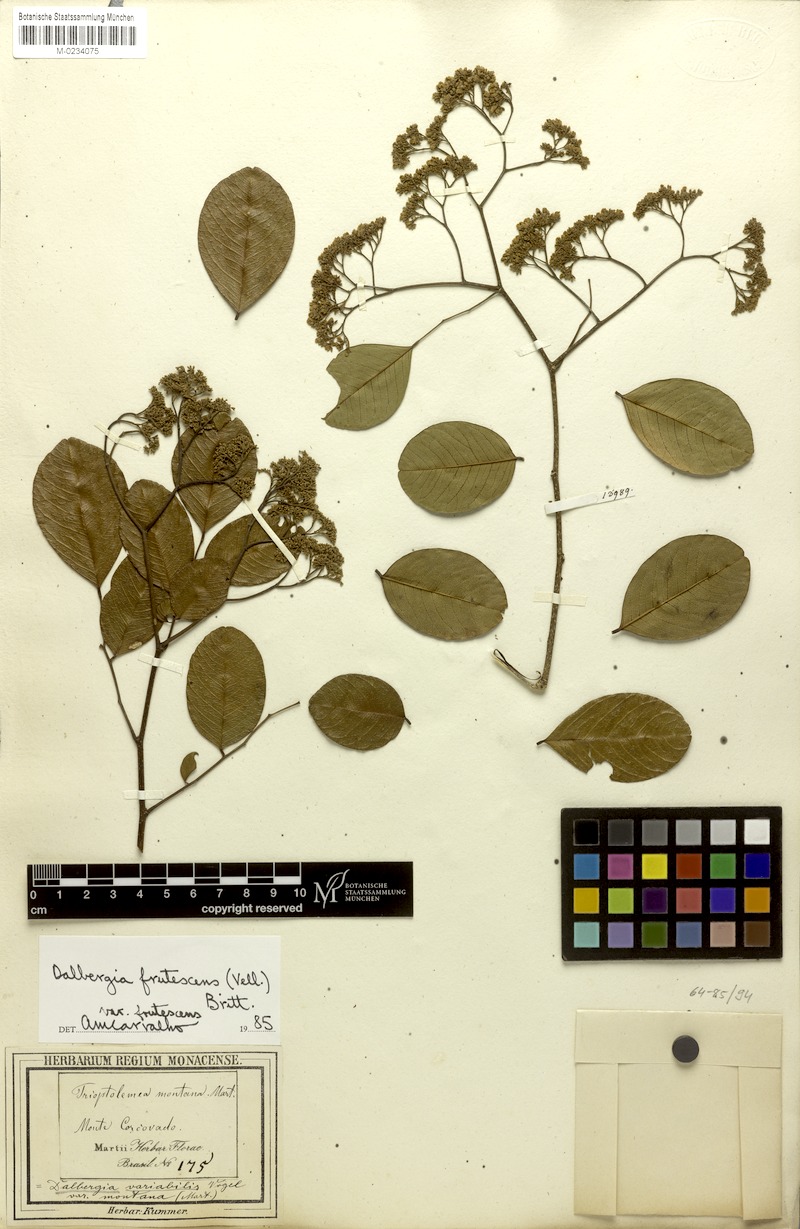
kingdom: Plantae
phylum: Tracheophyta
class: Magnoliopsida
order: Fabales
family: Fabaceae
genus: Dalbergia
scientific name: Dalbergia frutescens
